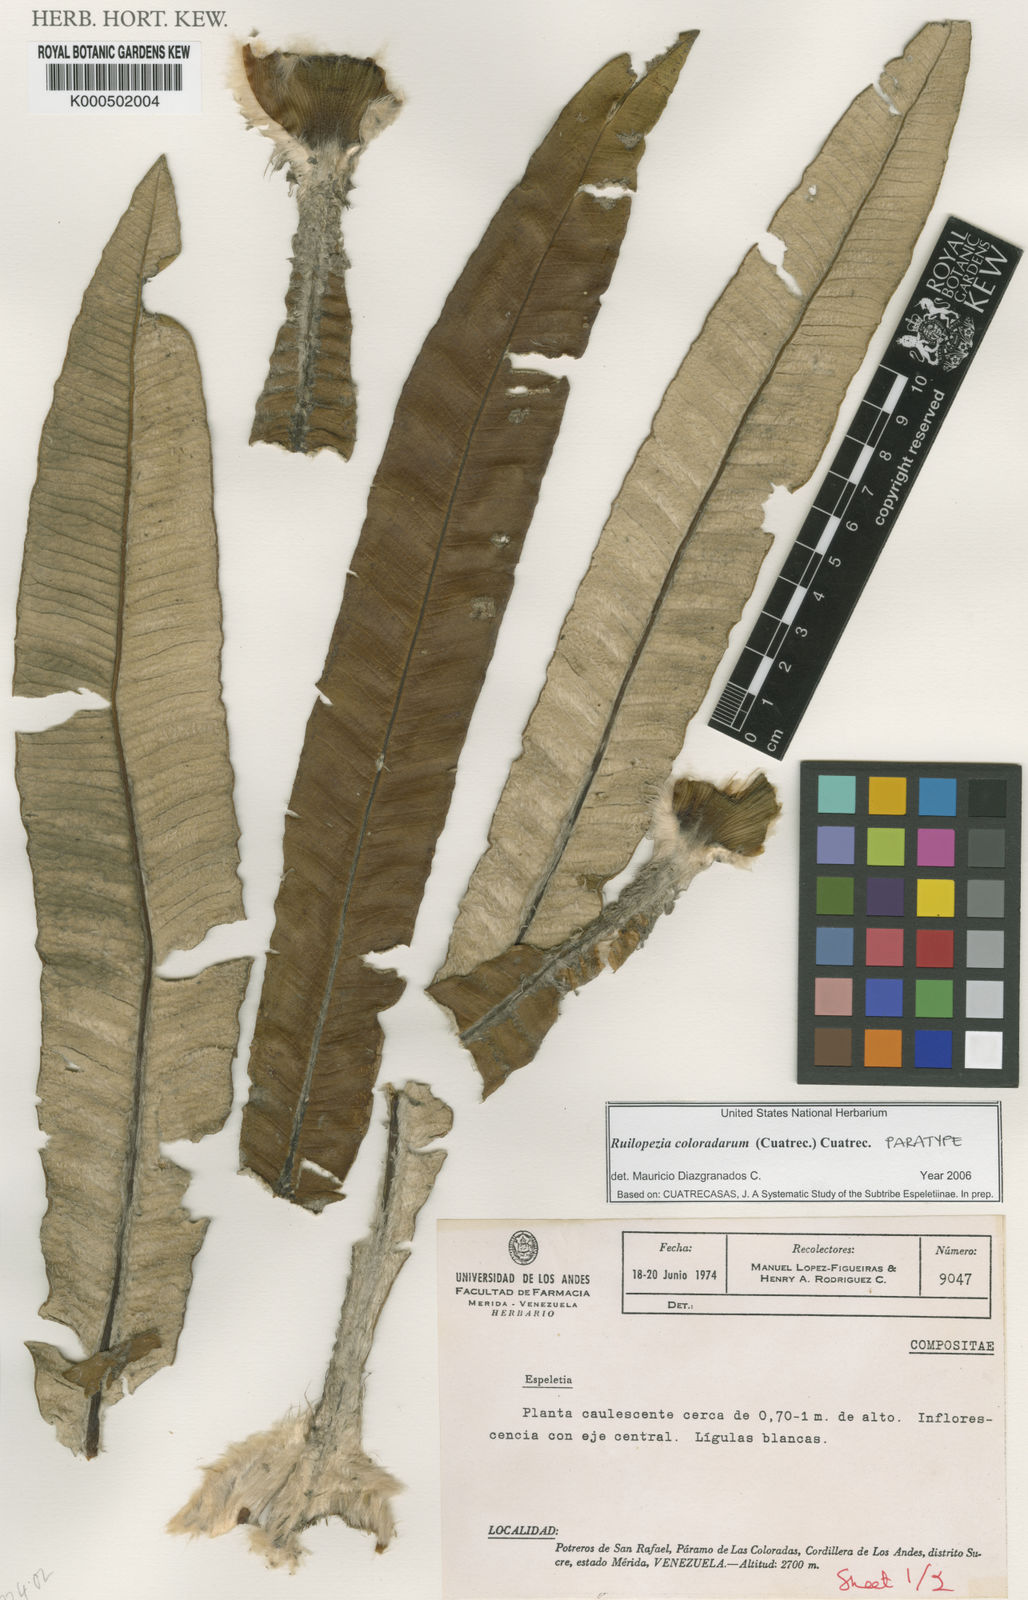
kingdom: Plantae
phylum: Tracheophyta
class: Magnoliopsida
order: Asterales
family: Asteraceae
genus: Espeletia
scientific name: Espeletia coloradarum
